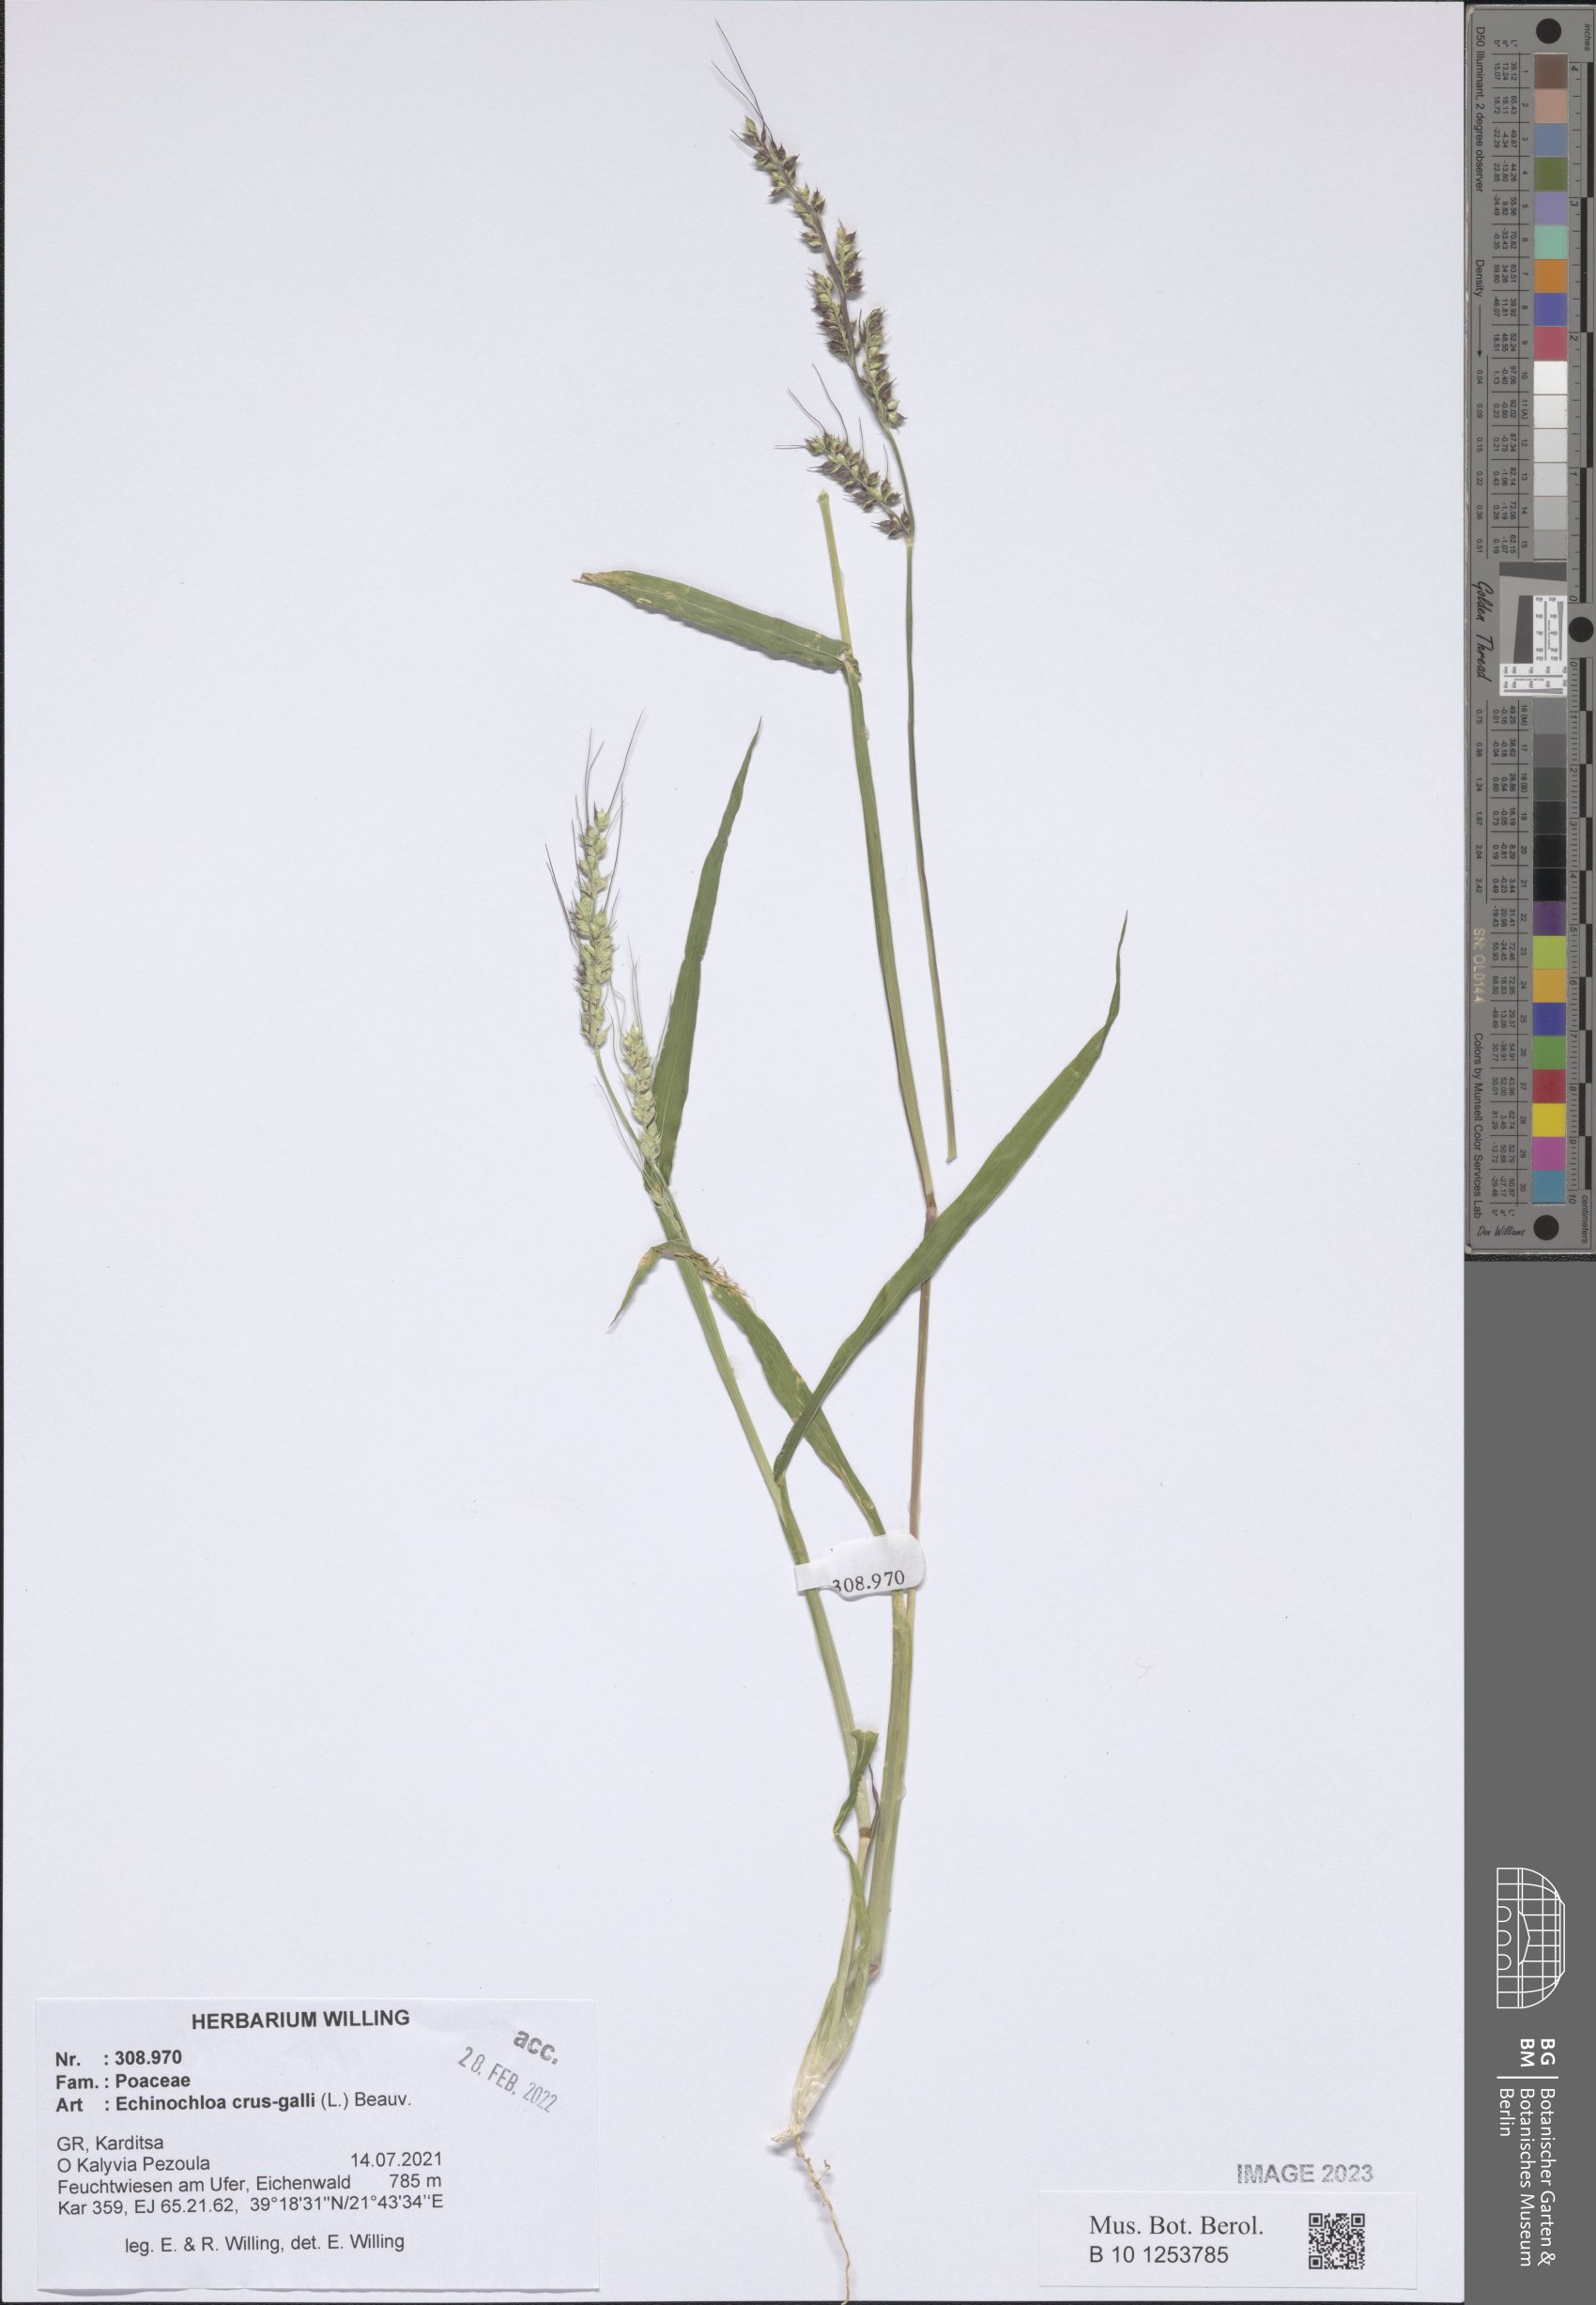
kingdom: Plantae
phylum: Tracheophyta
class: Liliopsida
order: Poales
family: Poaceae
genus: Echinochloa
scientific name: Echinochloa crus-galli
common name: Cockspur
